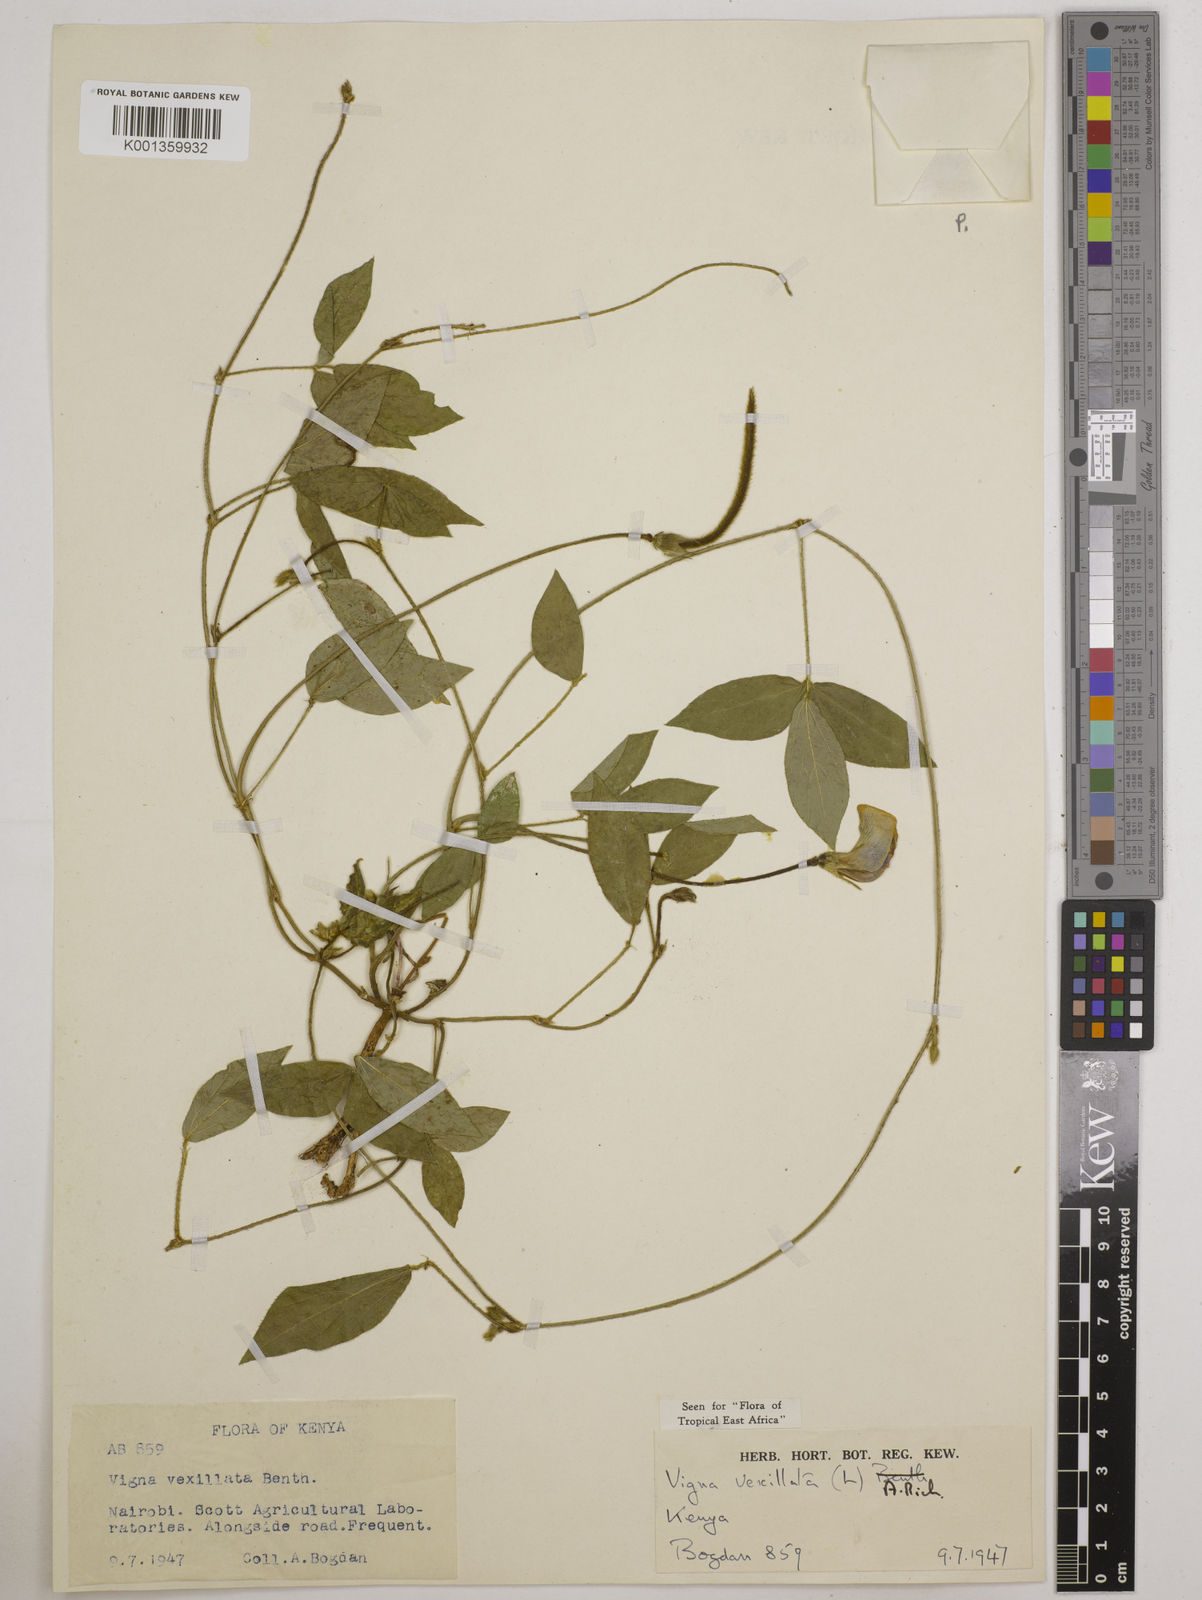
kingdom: Plantae
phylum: Tracheophyta
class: Magnoliopsida
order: Fabales
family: Fabaceae
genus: Vigna
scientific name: Vigna vexillata
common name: Zombi pea
